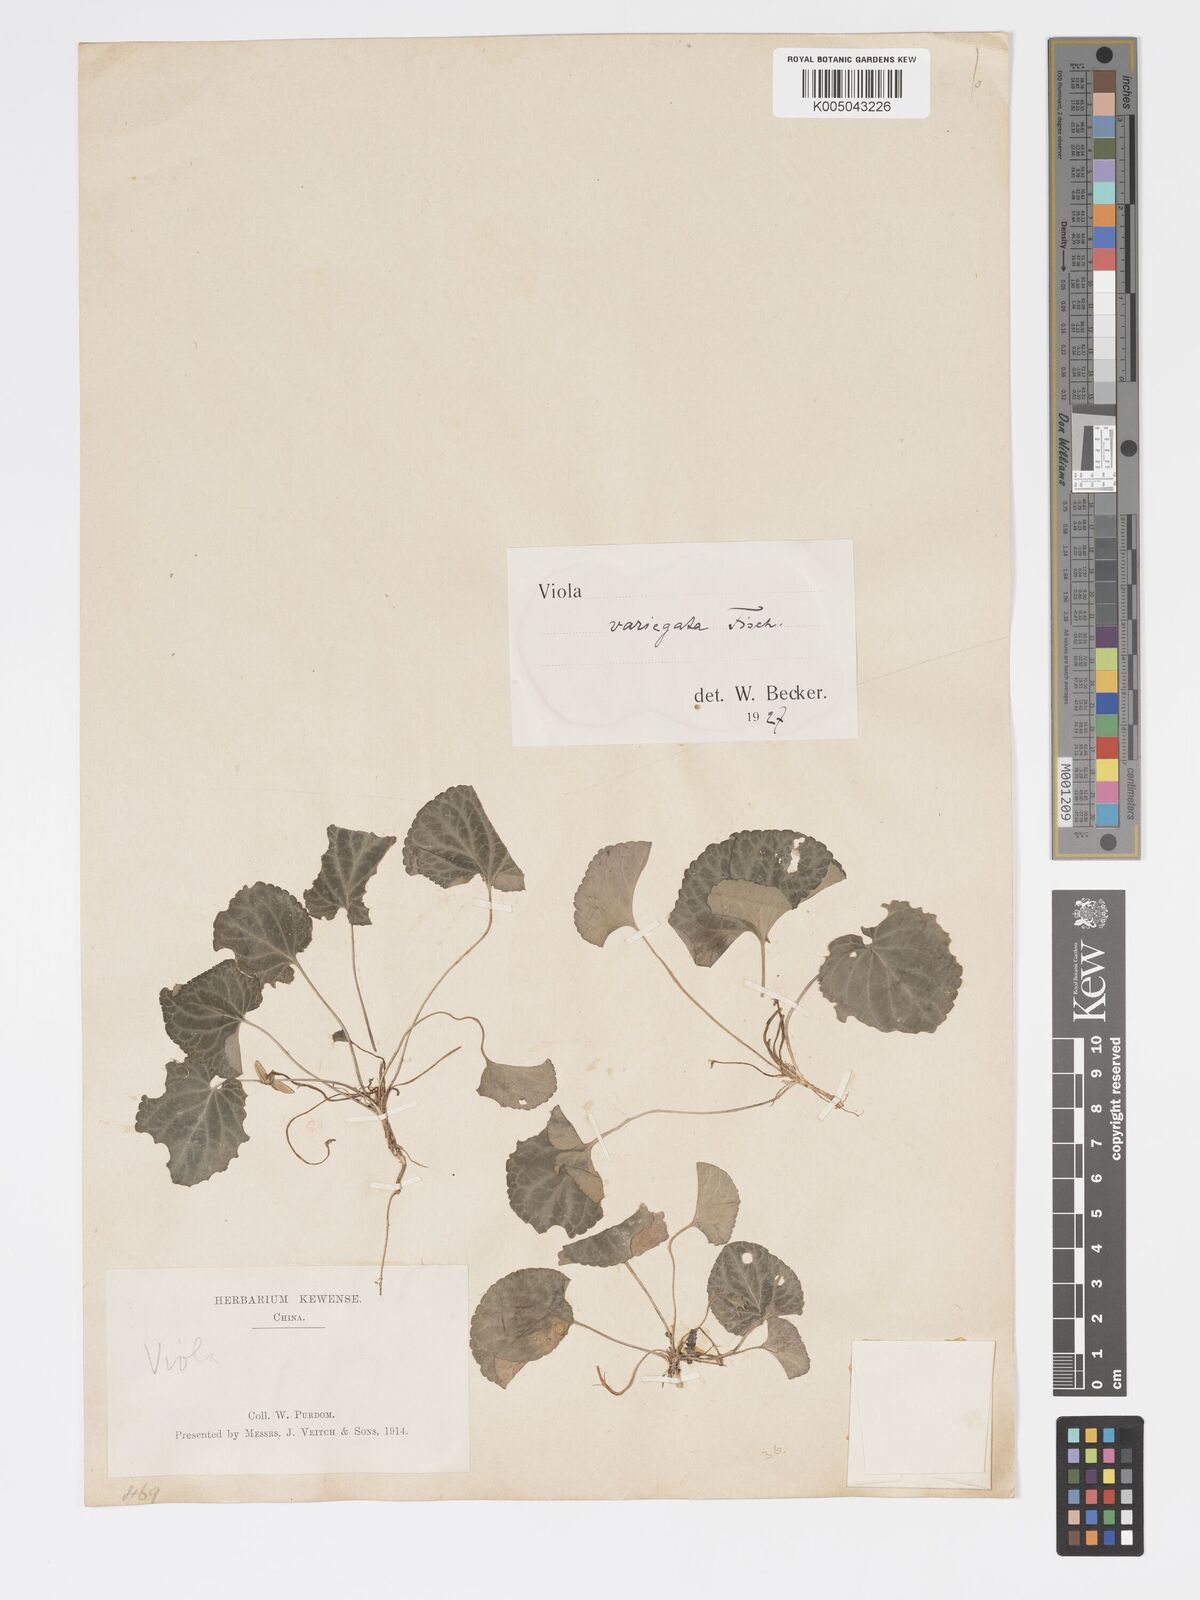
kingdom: Plantae
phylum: Tracheophyta
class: Magnoliopsida
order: Malpighiales
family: Violaceae
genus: Viola
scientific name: Viola vaginata
